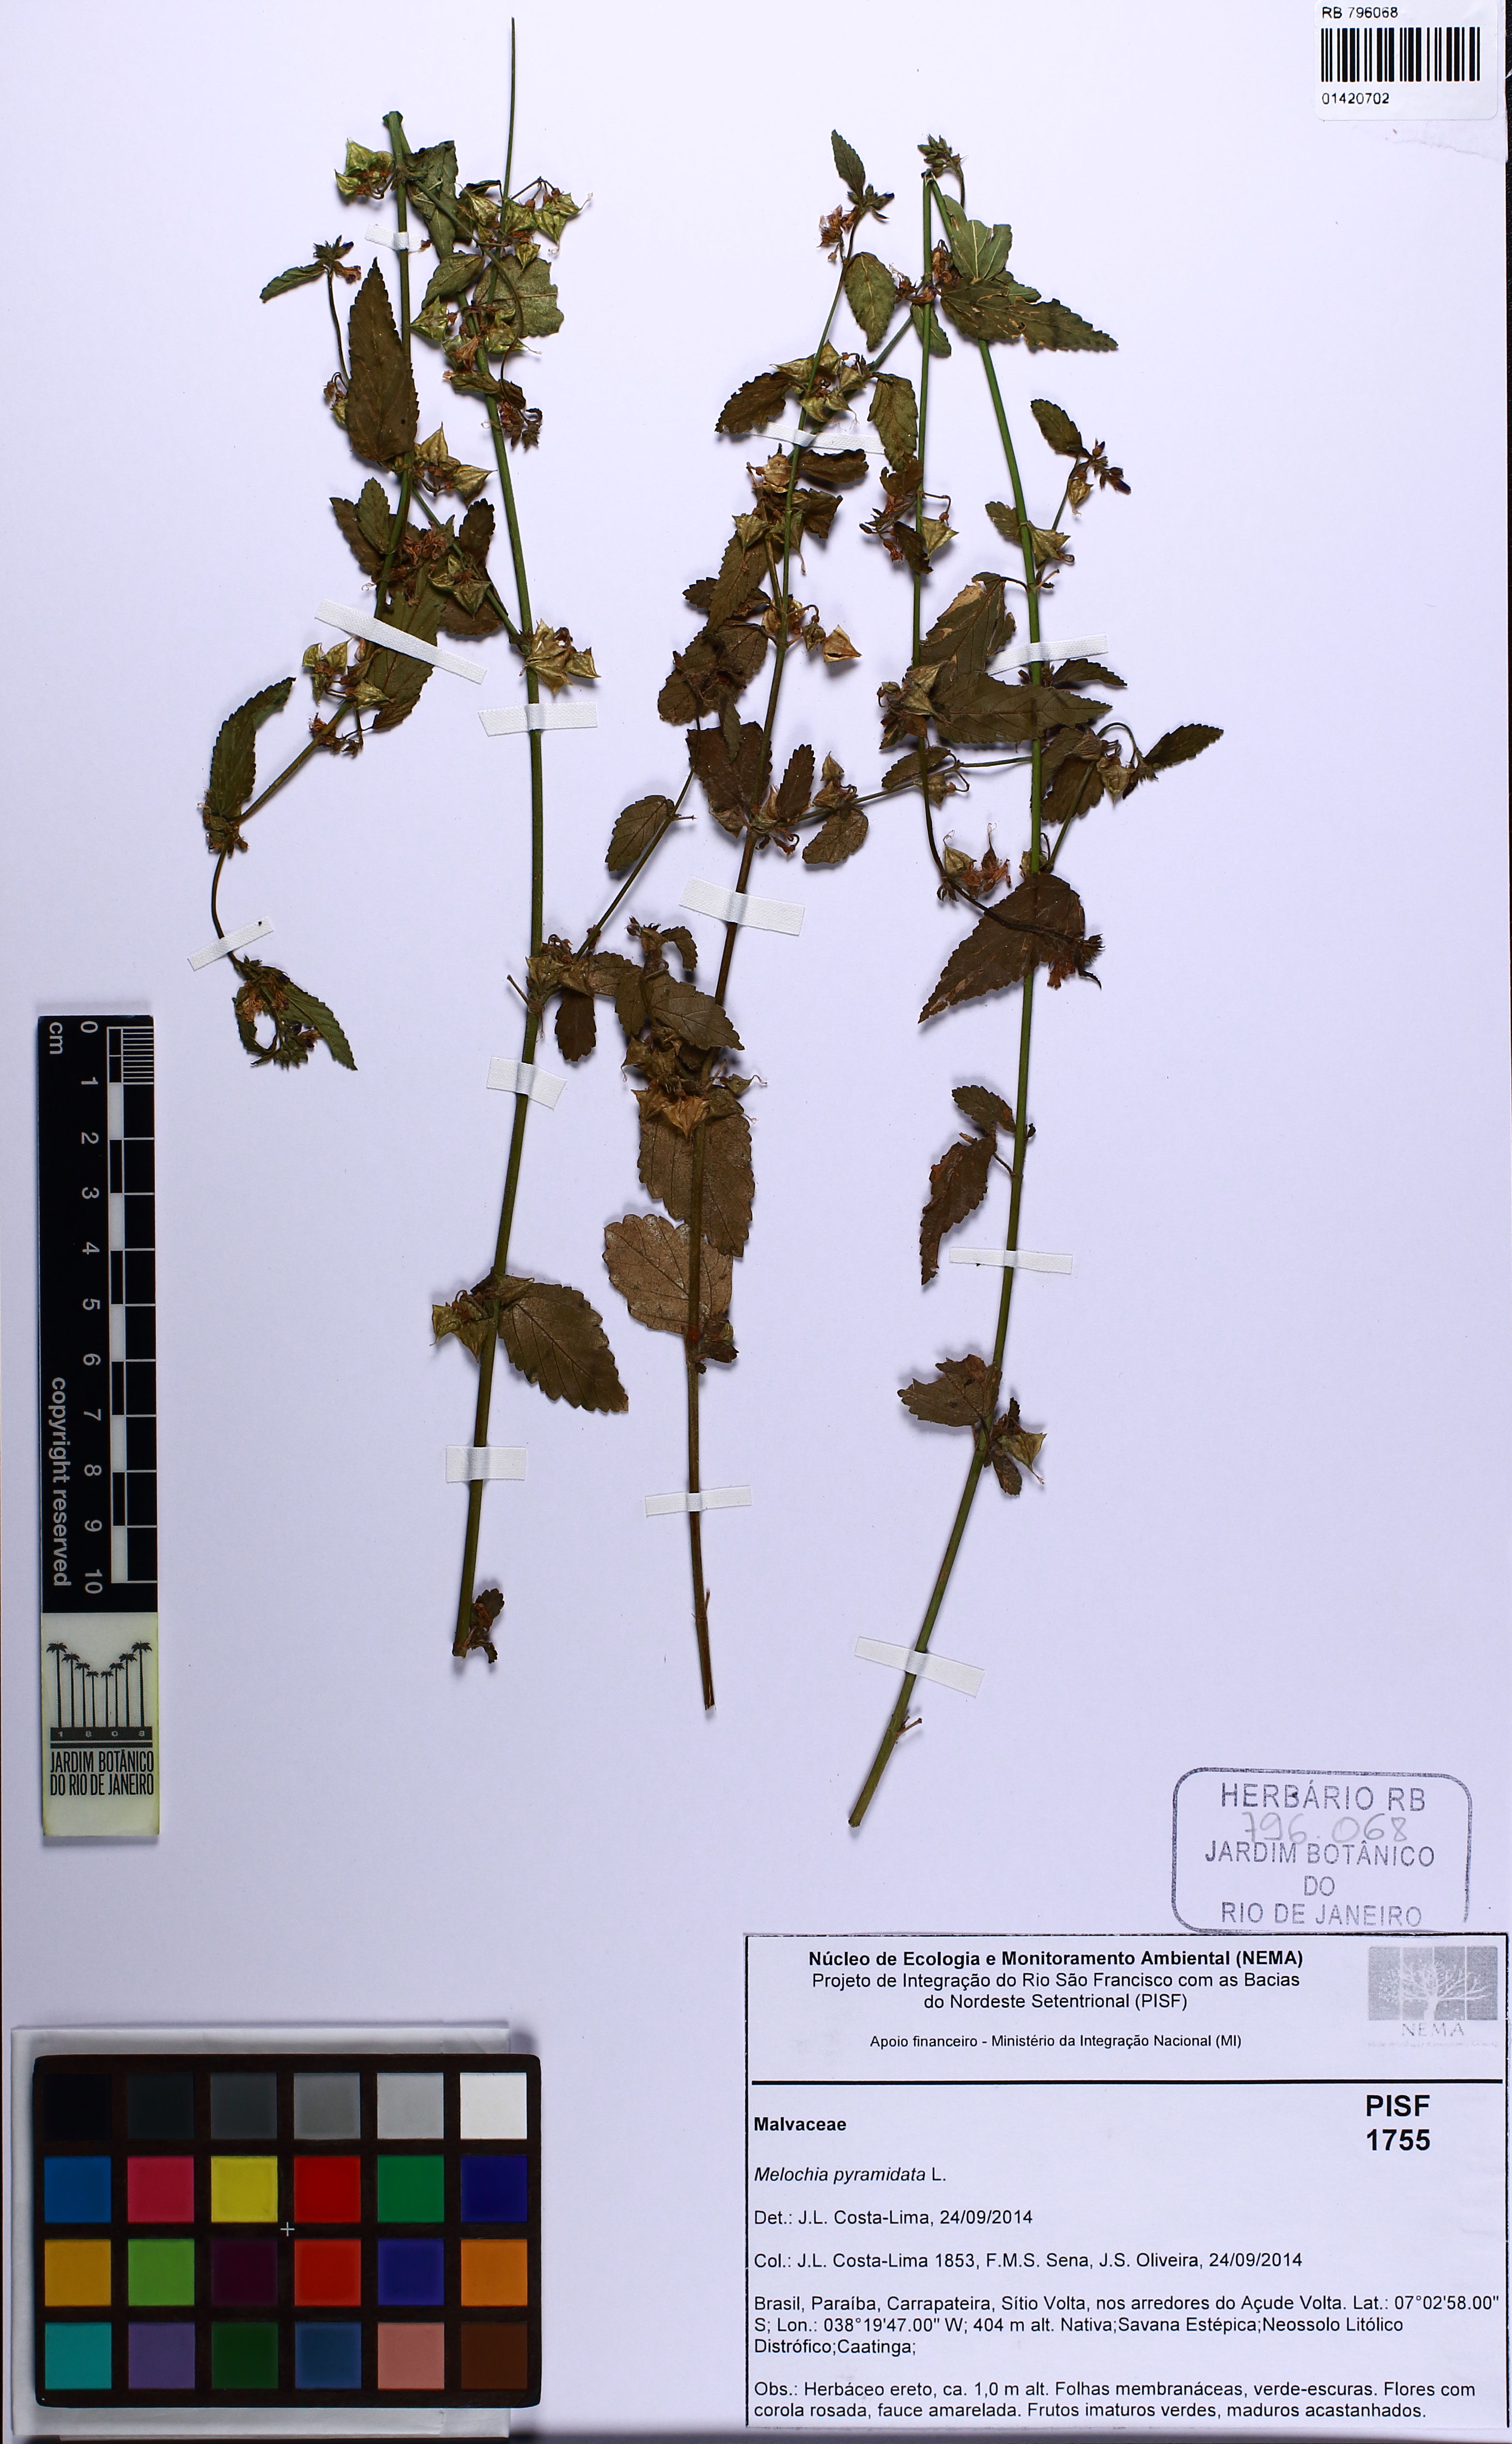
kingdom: Plantae
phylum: Tracheophyta
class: Magnoliopsida
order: Malvales
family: Malvaceae
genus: Melochia
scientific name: Melochia pyramidata
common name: Pyramidflower
